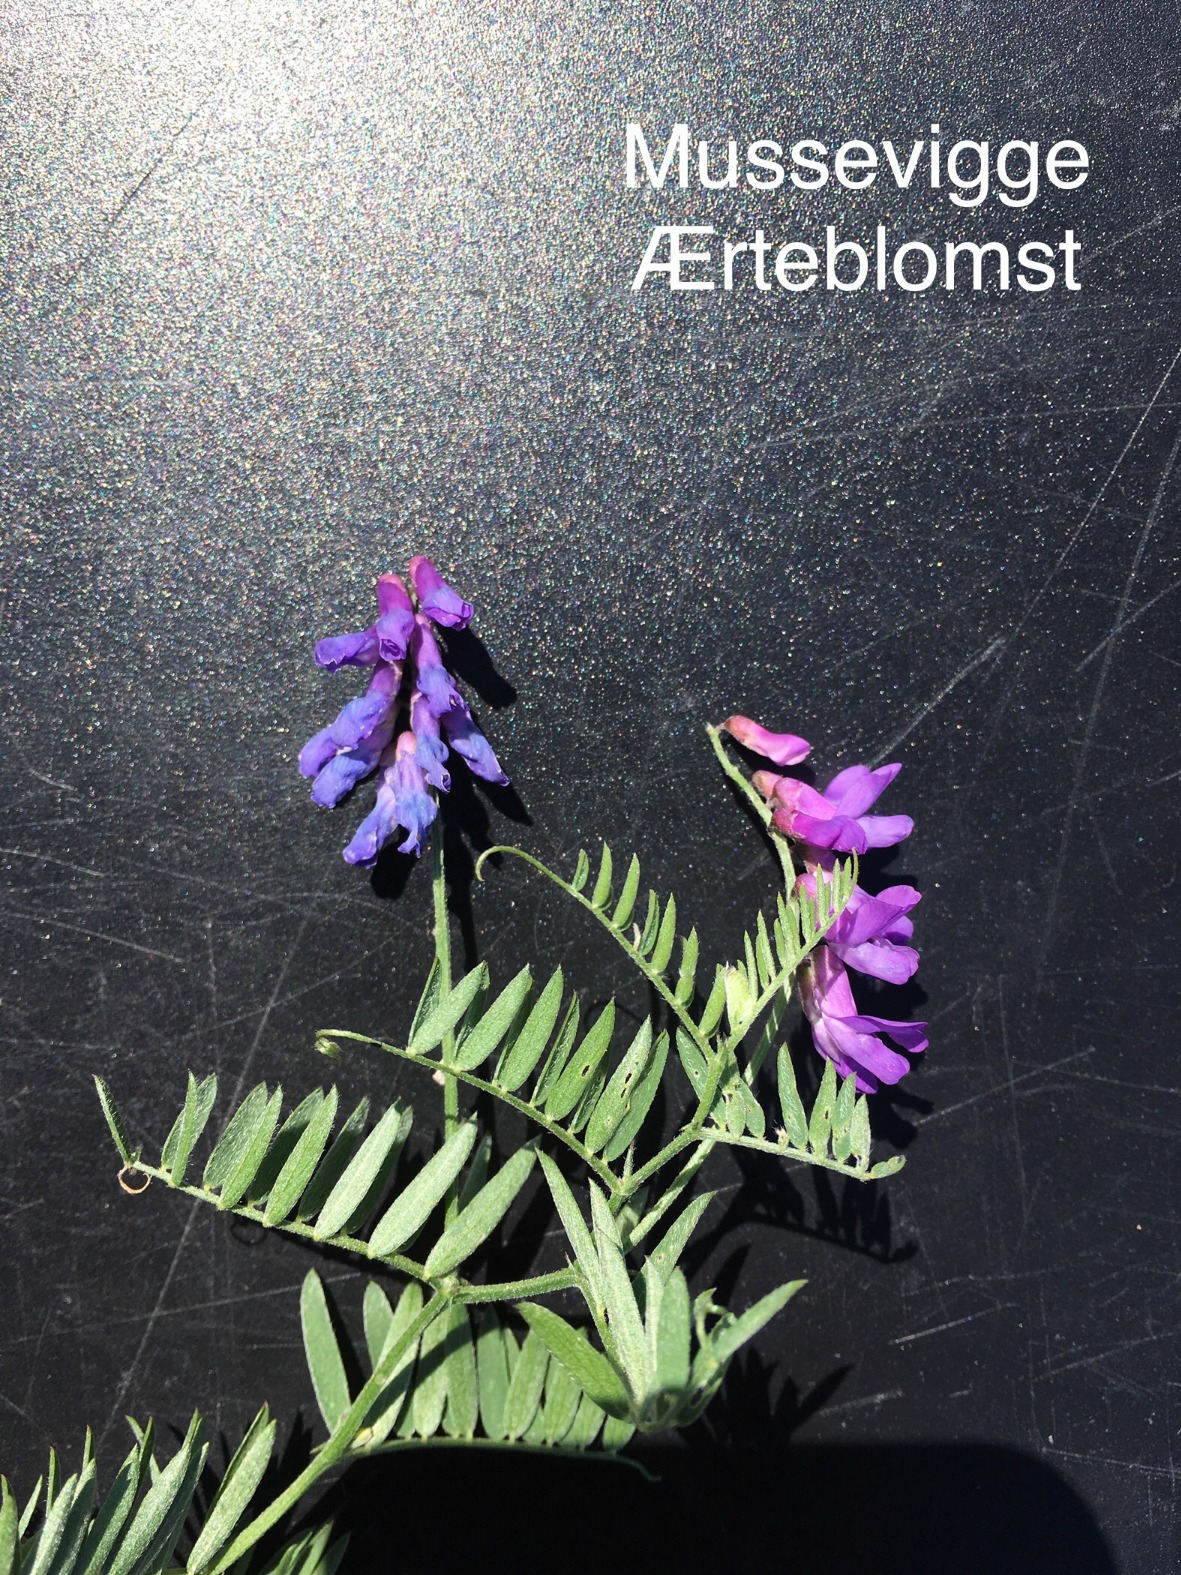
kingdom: Plantae
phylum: Tracheophyta
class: Magnoliopsida
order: Fabales
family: Fabaceae
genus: Vicia
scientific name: Vicia cracca
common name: Muse-vikke
